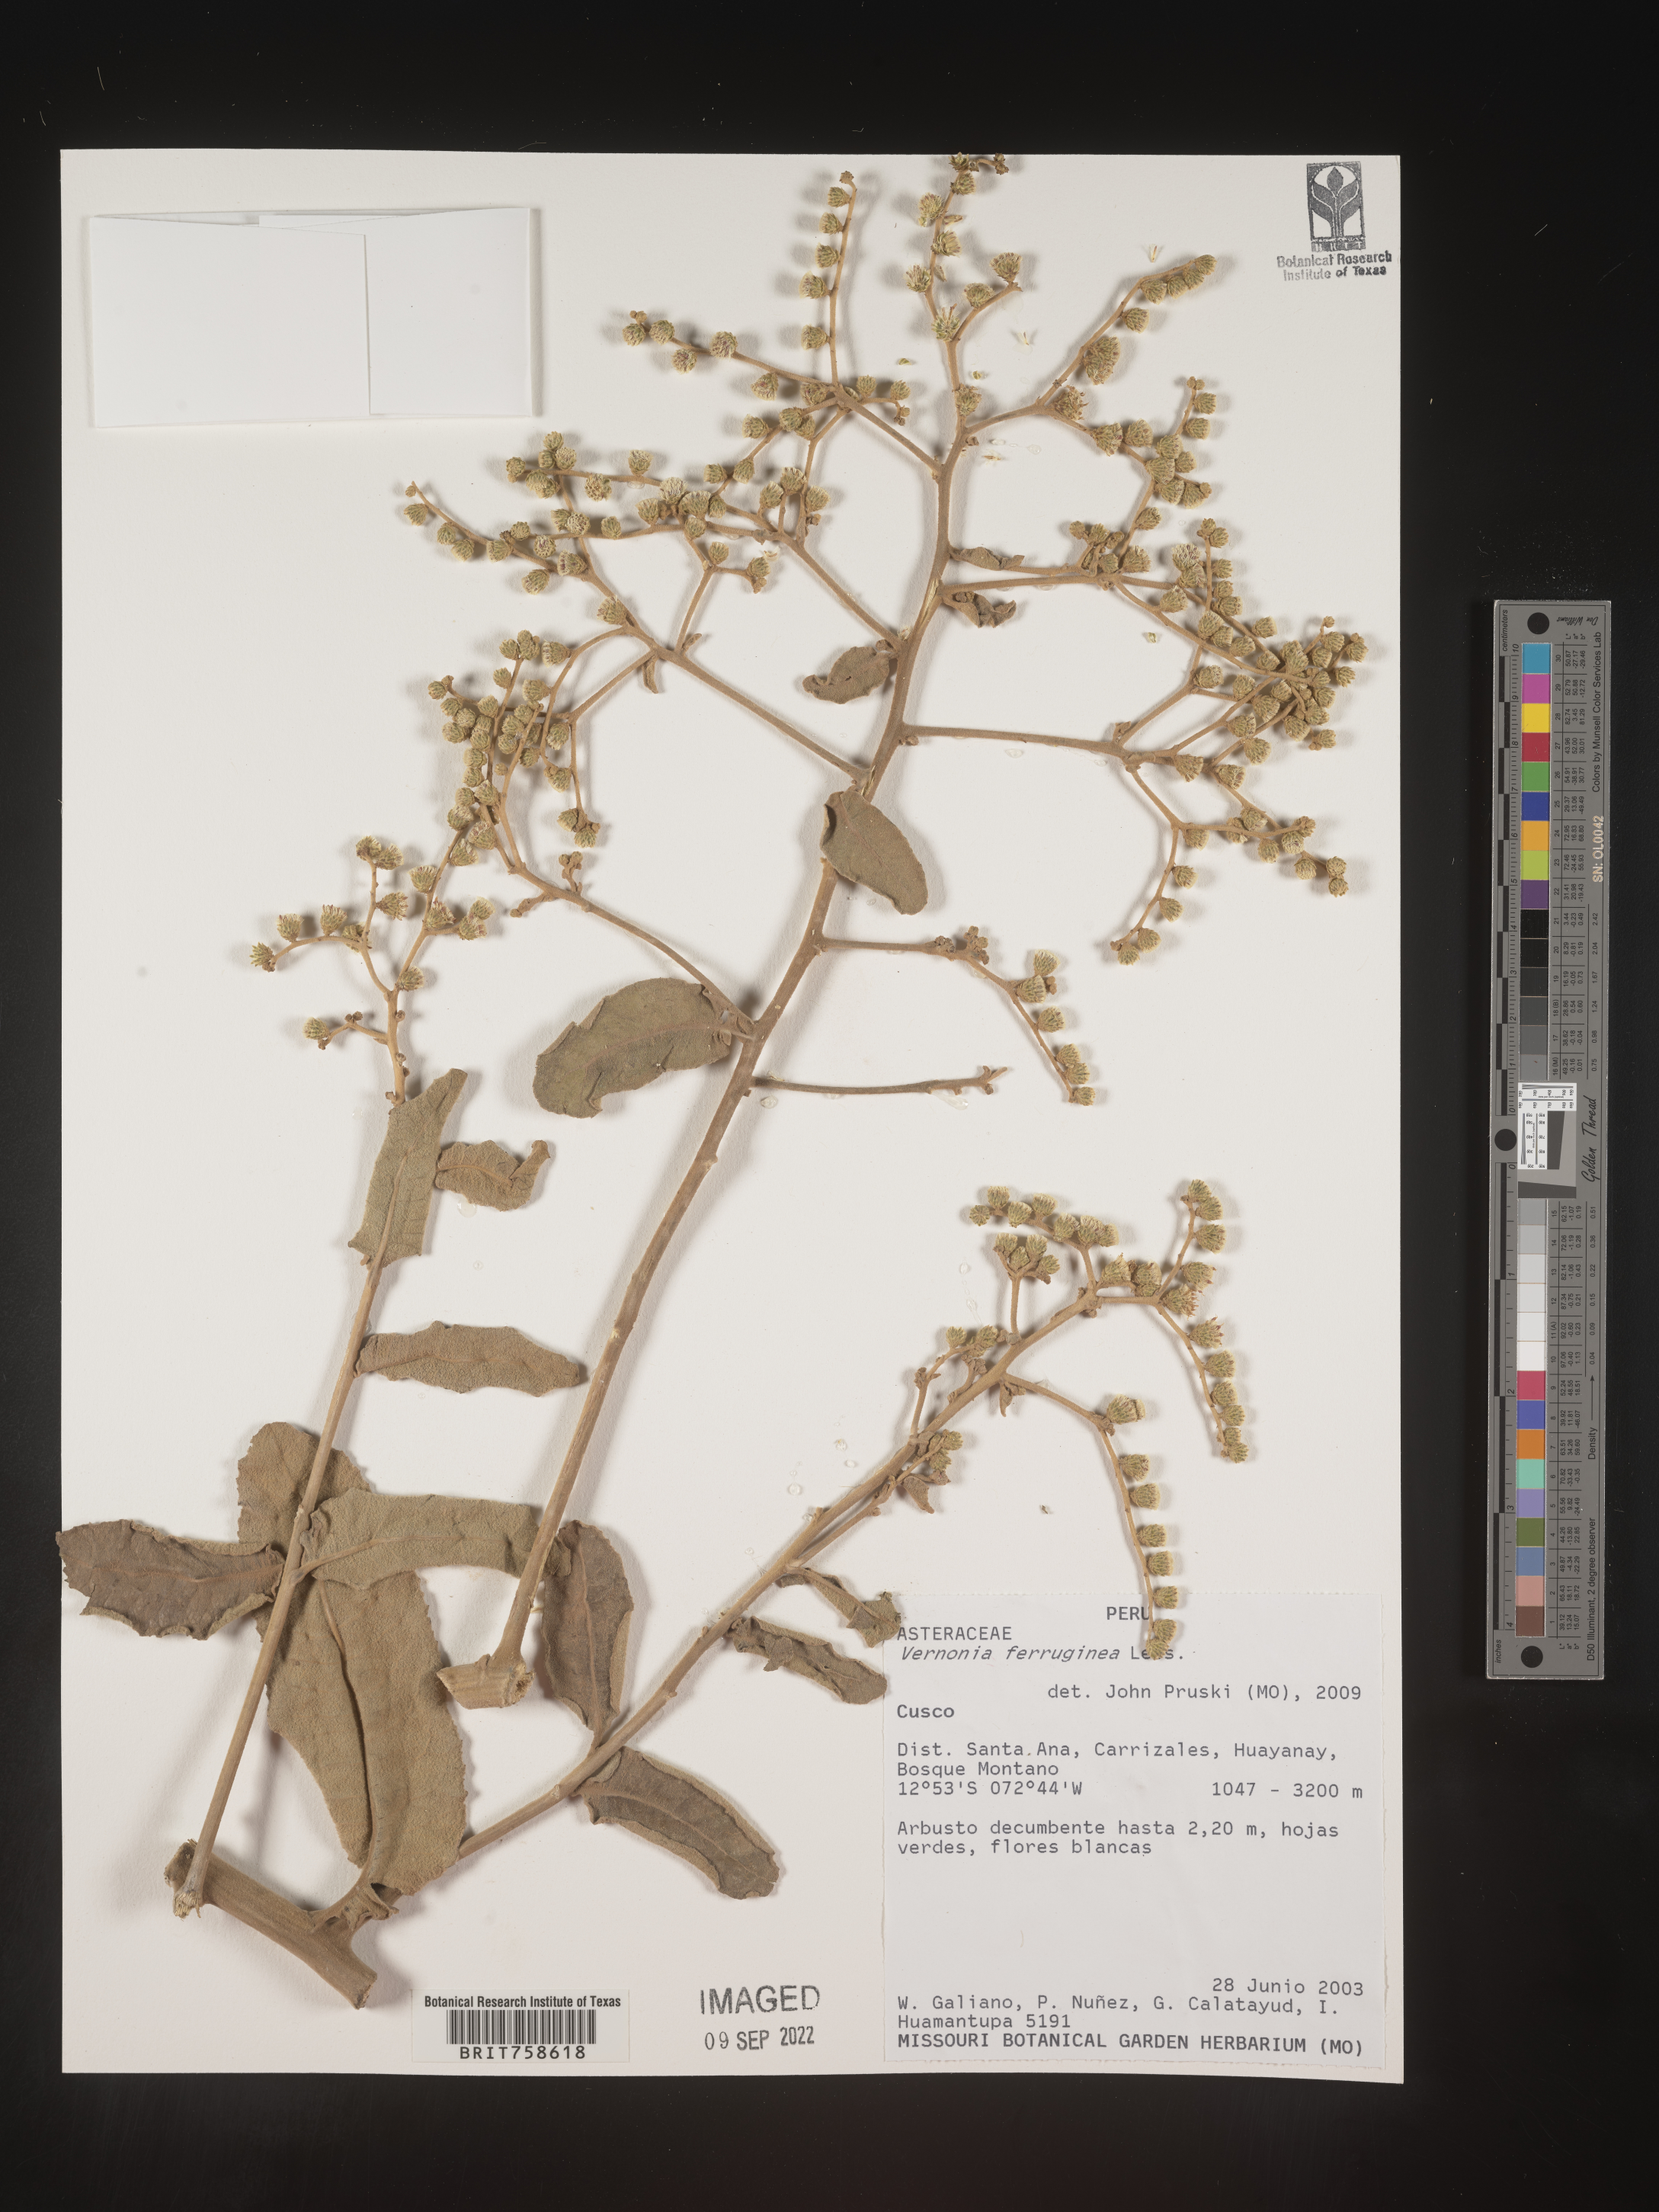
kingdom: Plantae
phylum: Tracheophyta
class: Magnoliopsida
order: Asterales
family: Asteraceae
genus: Vernonia
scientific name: Vernonia
